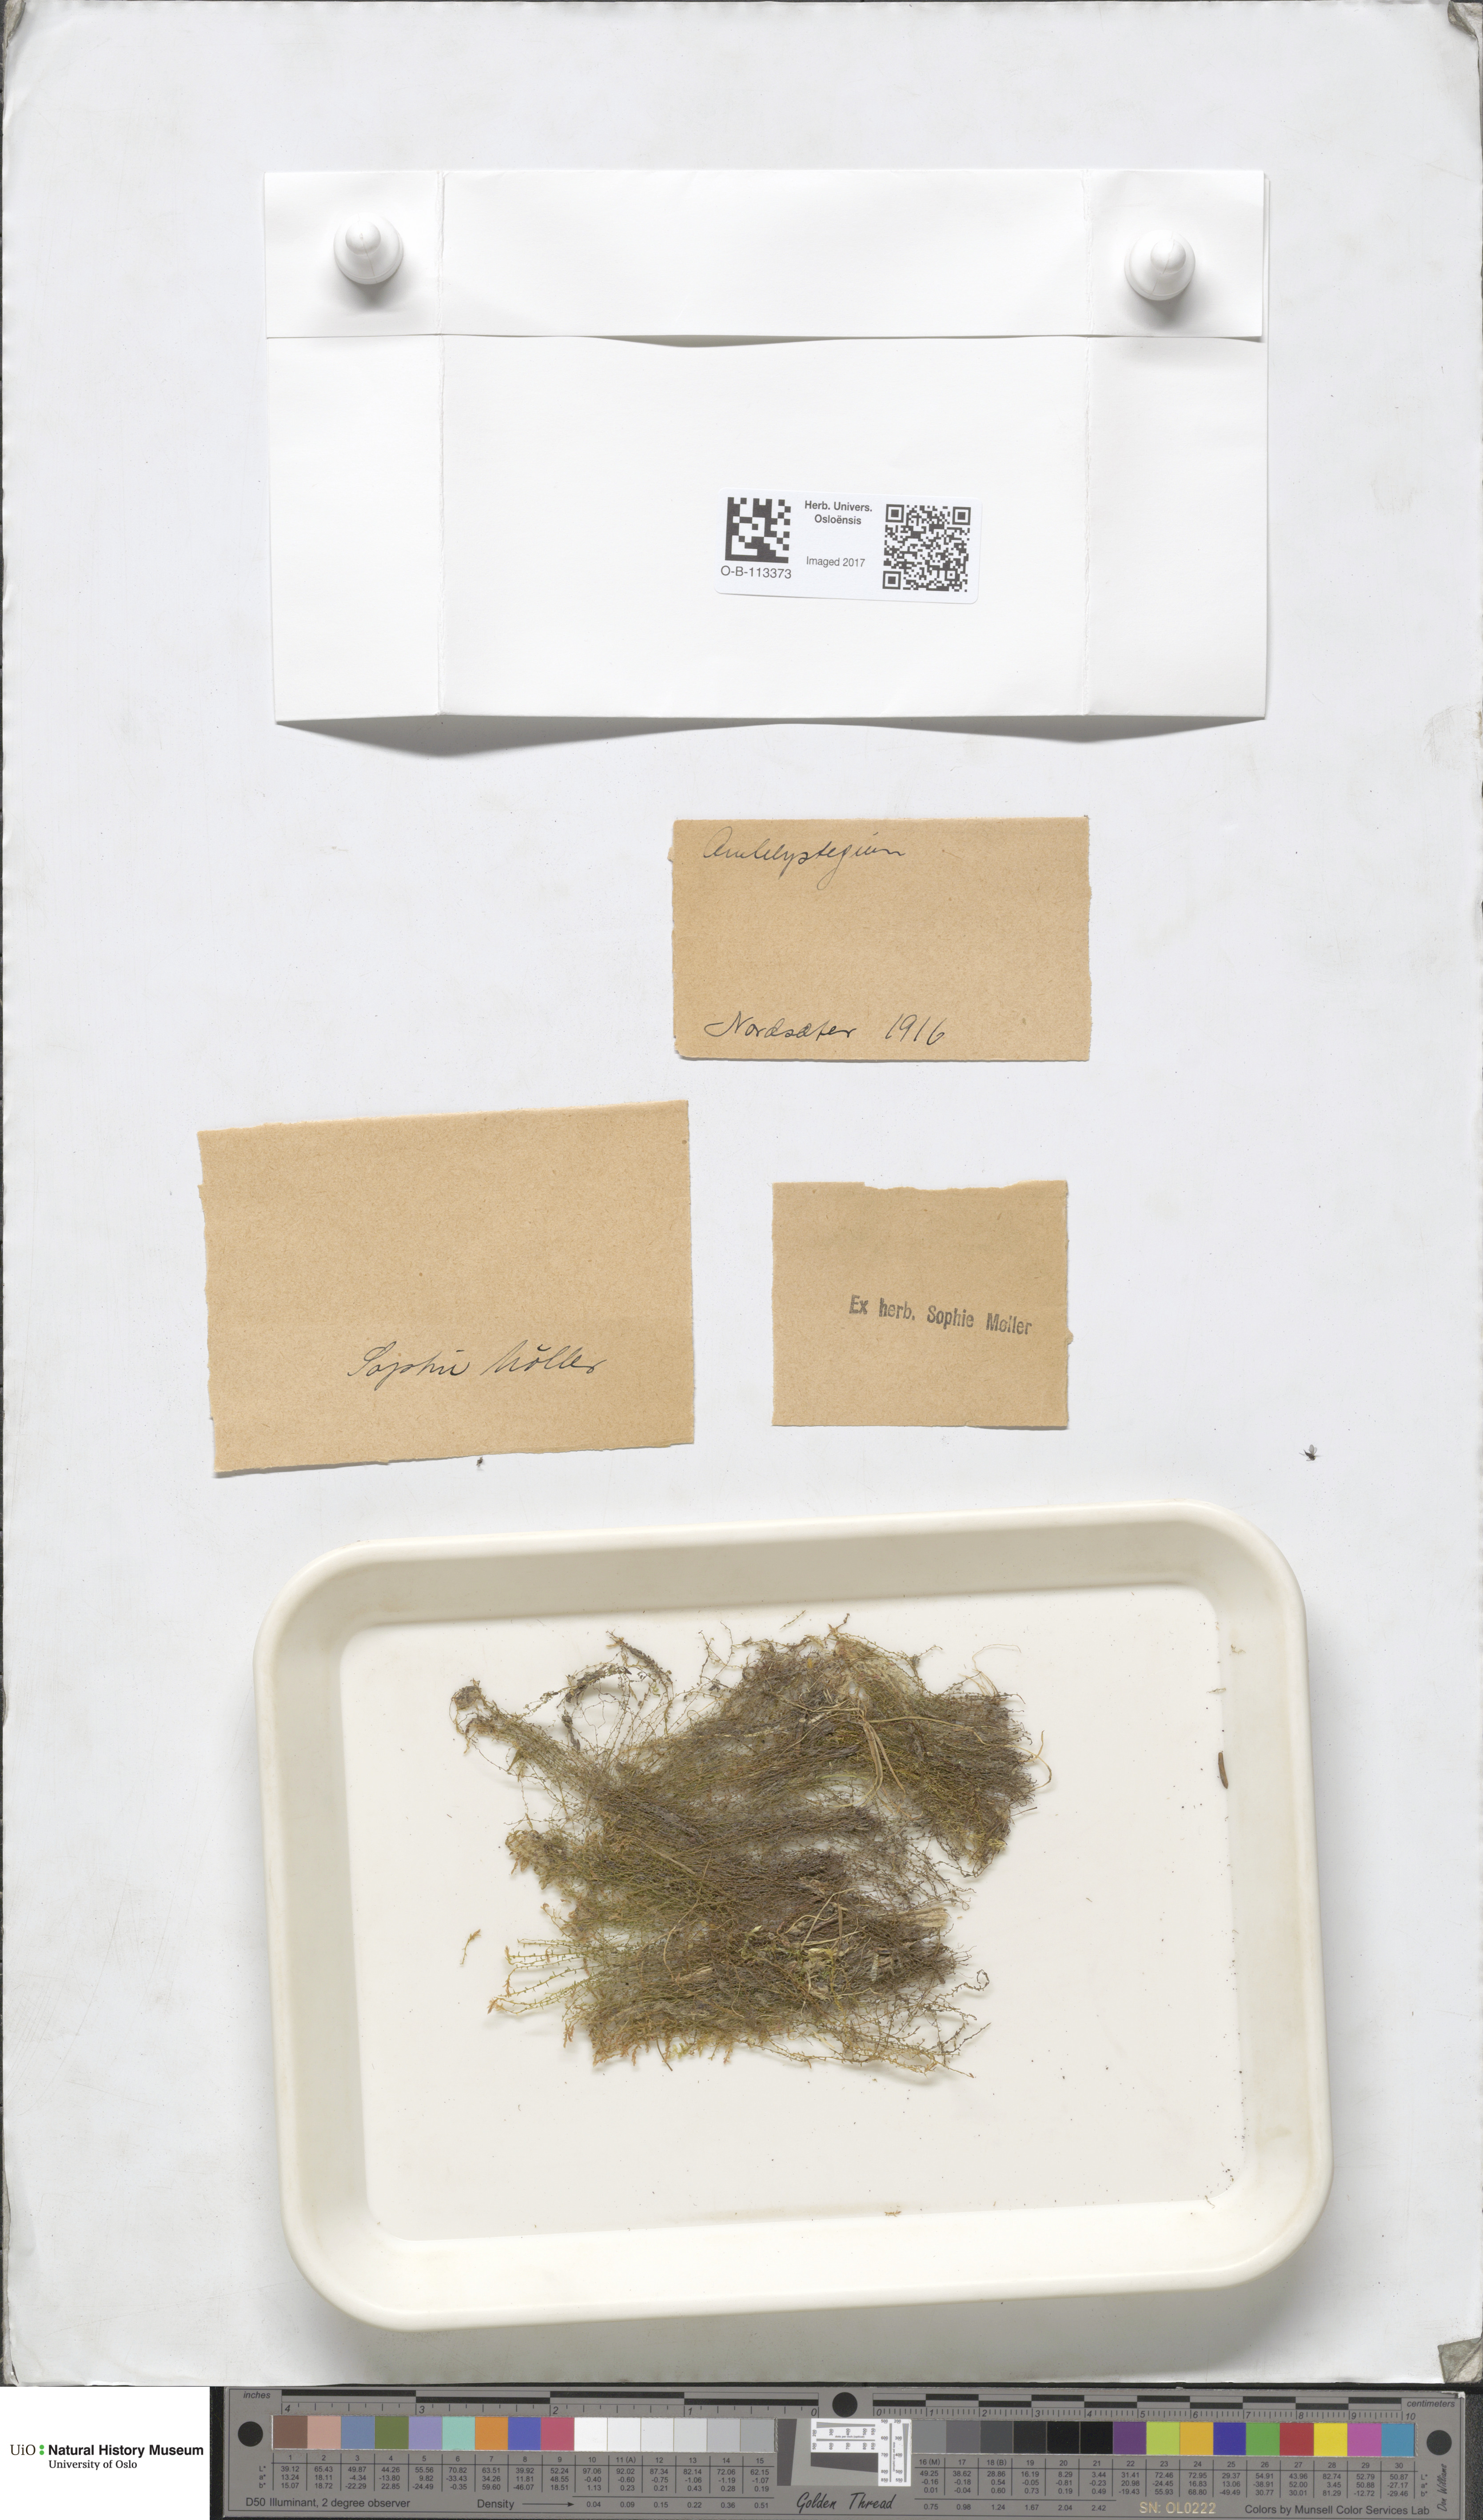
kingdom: Plantae
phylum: Bryophyta
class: Bryopsida
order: Hypnales
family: Amblystegiaceae
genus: Amblystegium
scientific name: Amblystegium
